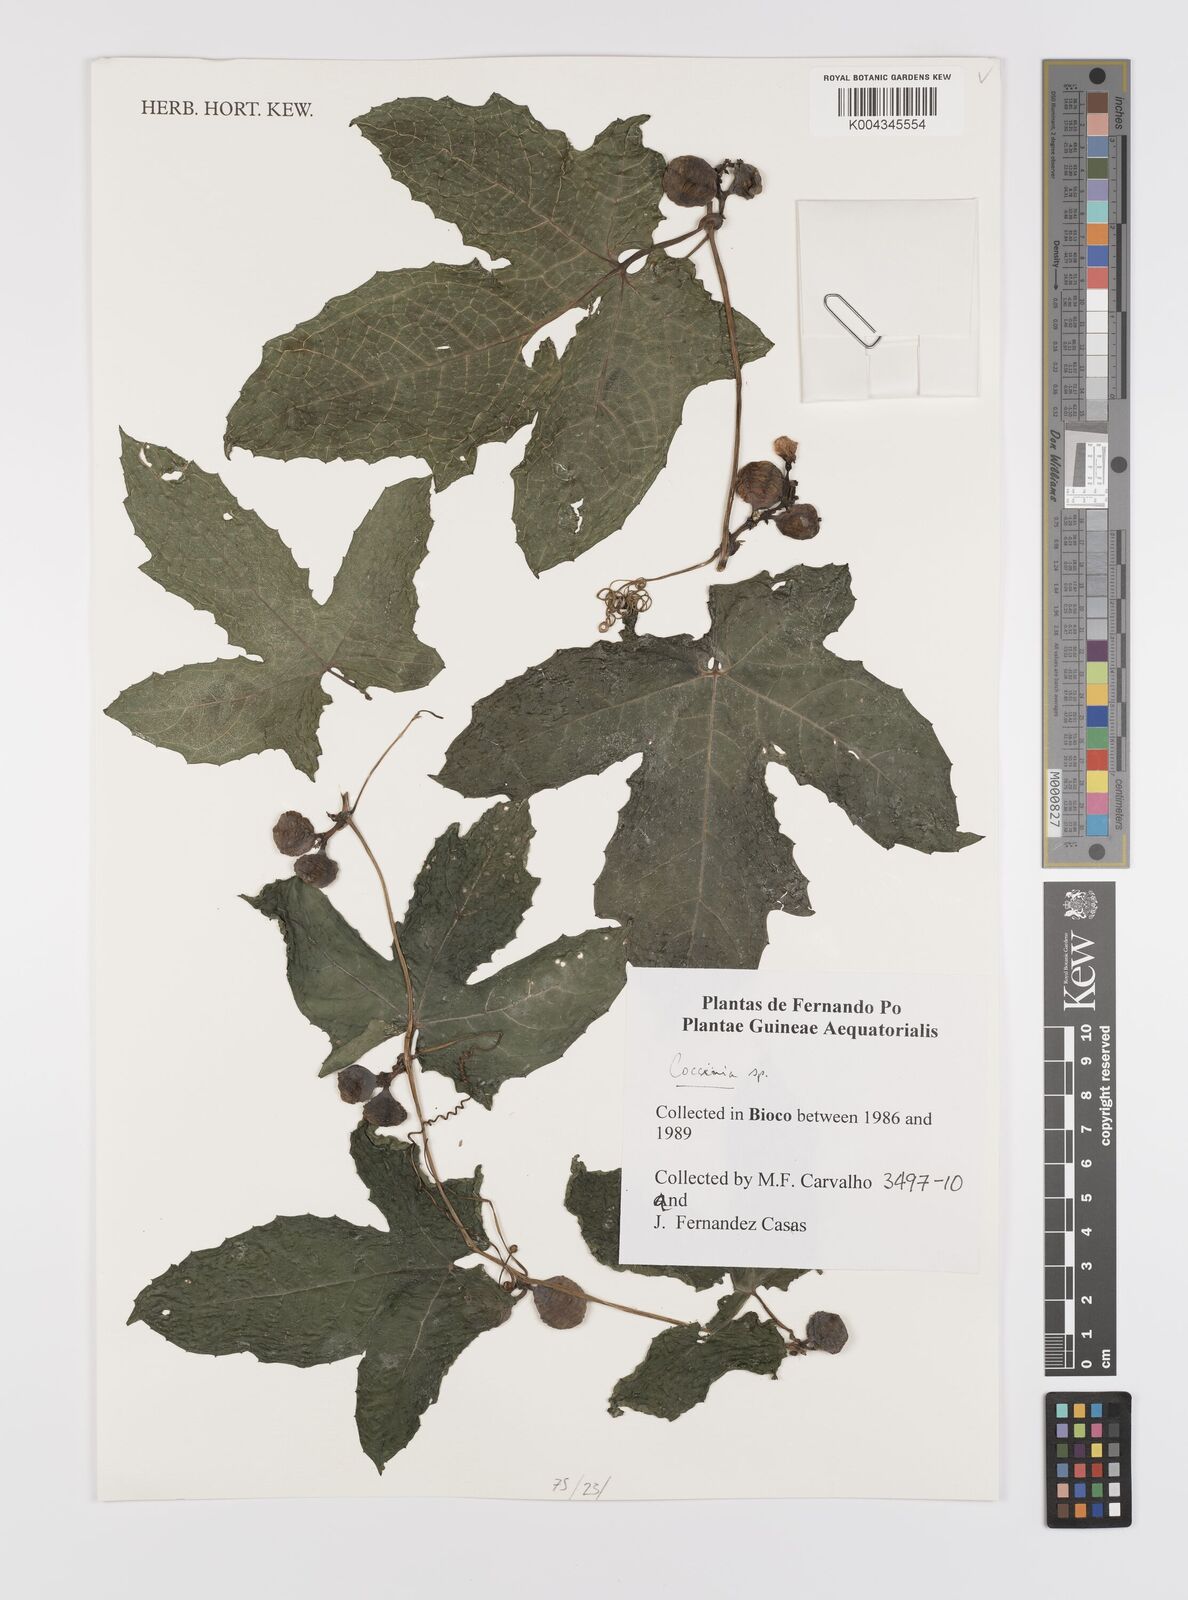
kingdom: Plantae
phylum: Tracheophyta
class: Magnoliopsida
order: Cucurbitales
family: Cucurbitaceae
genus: Coccinia
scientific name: Coccinia
